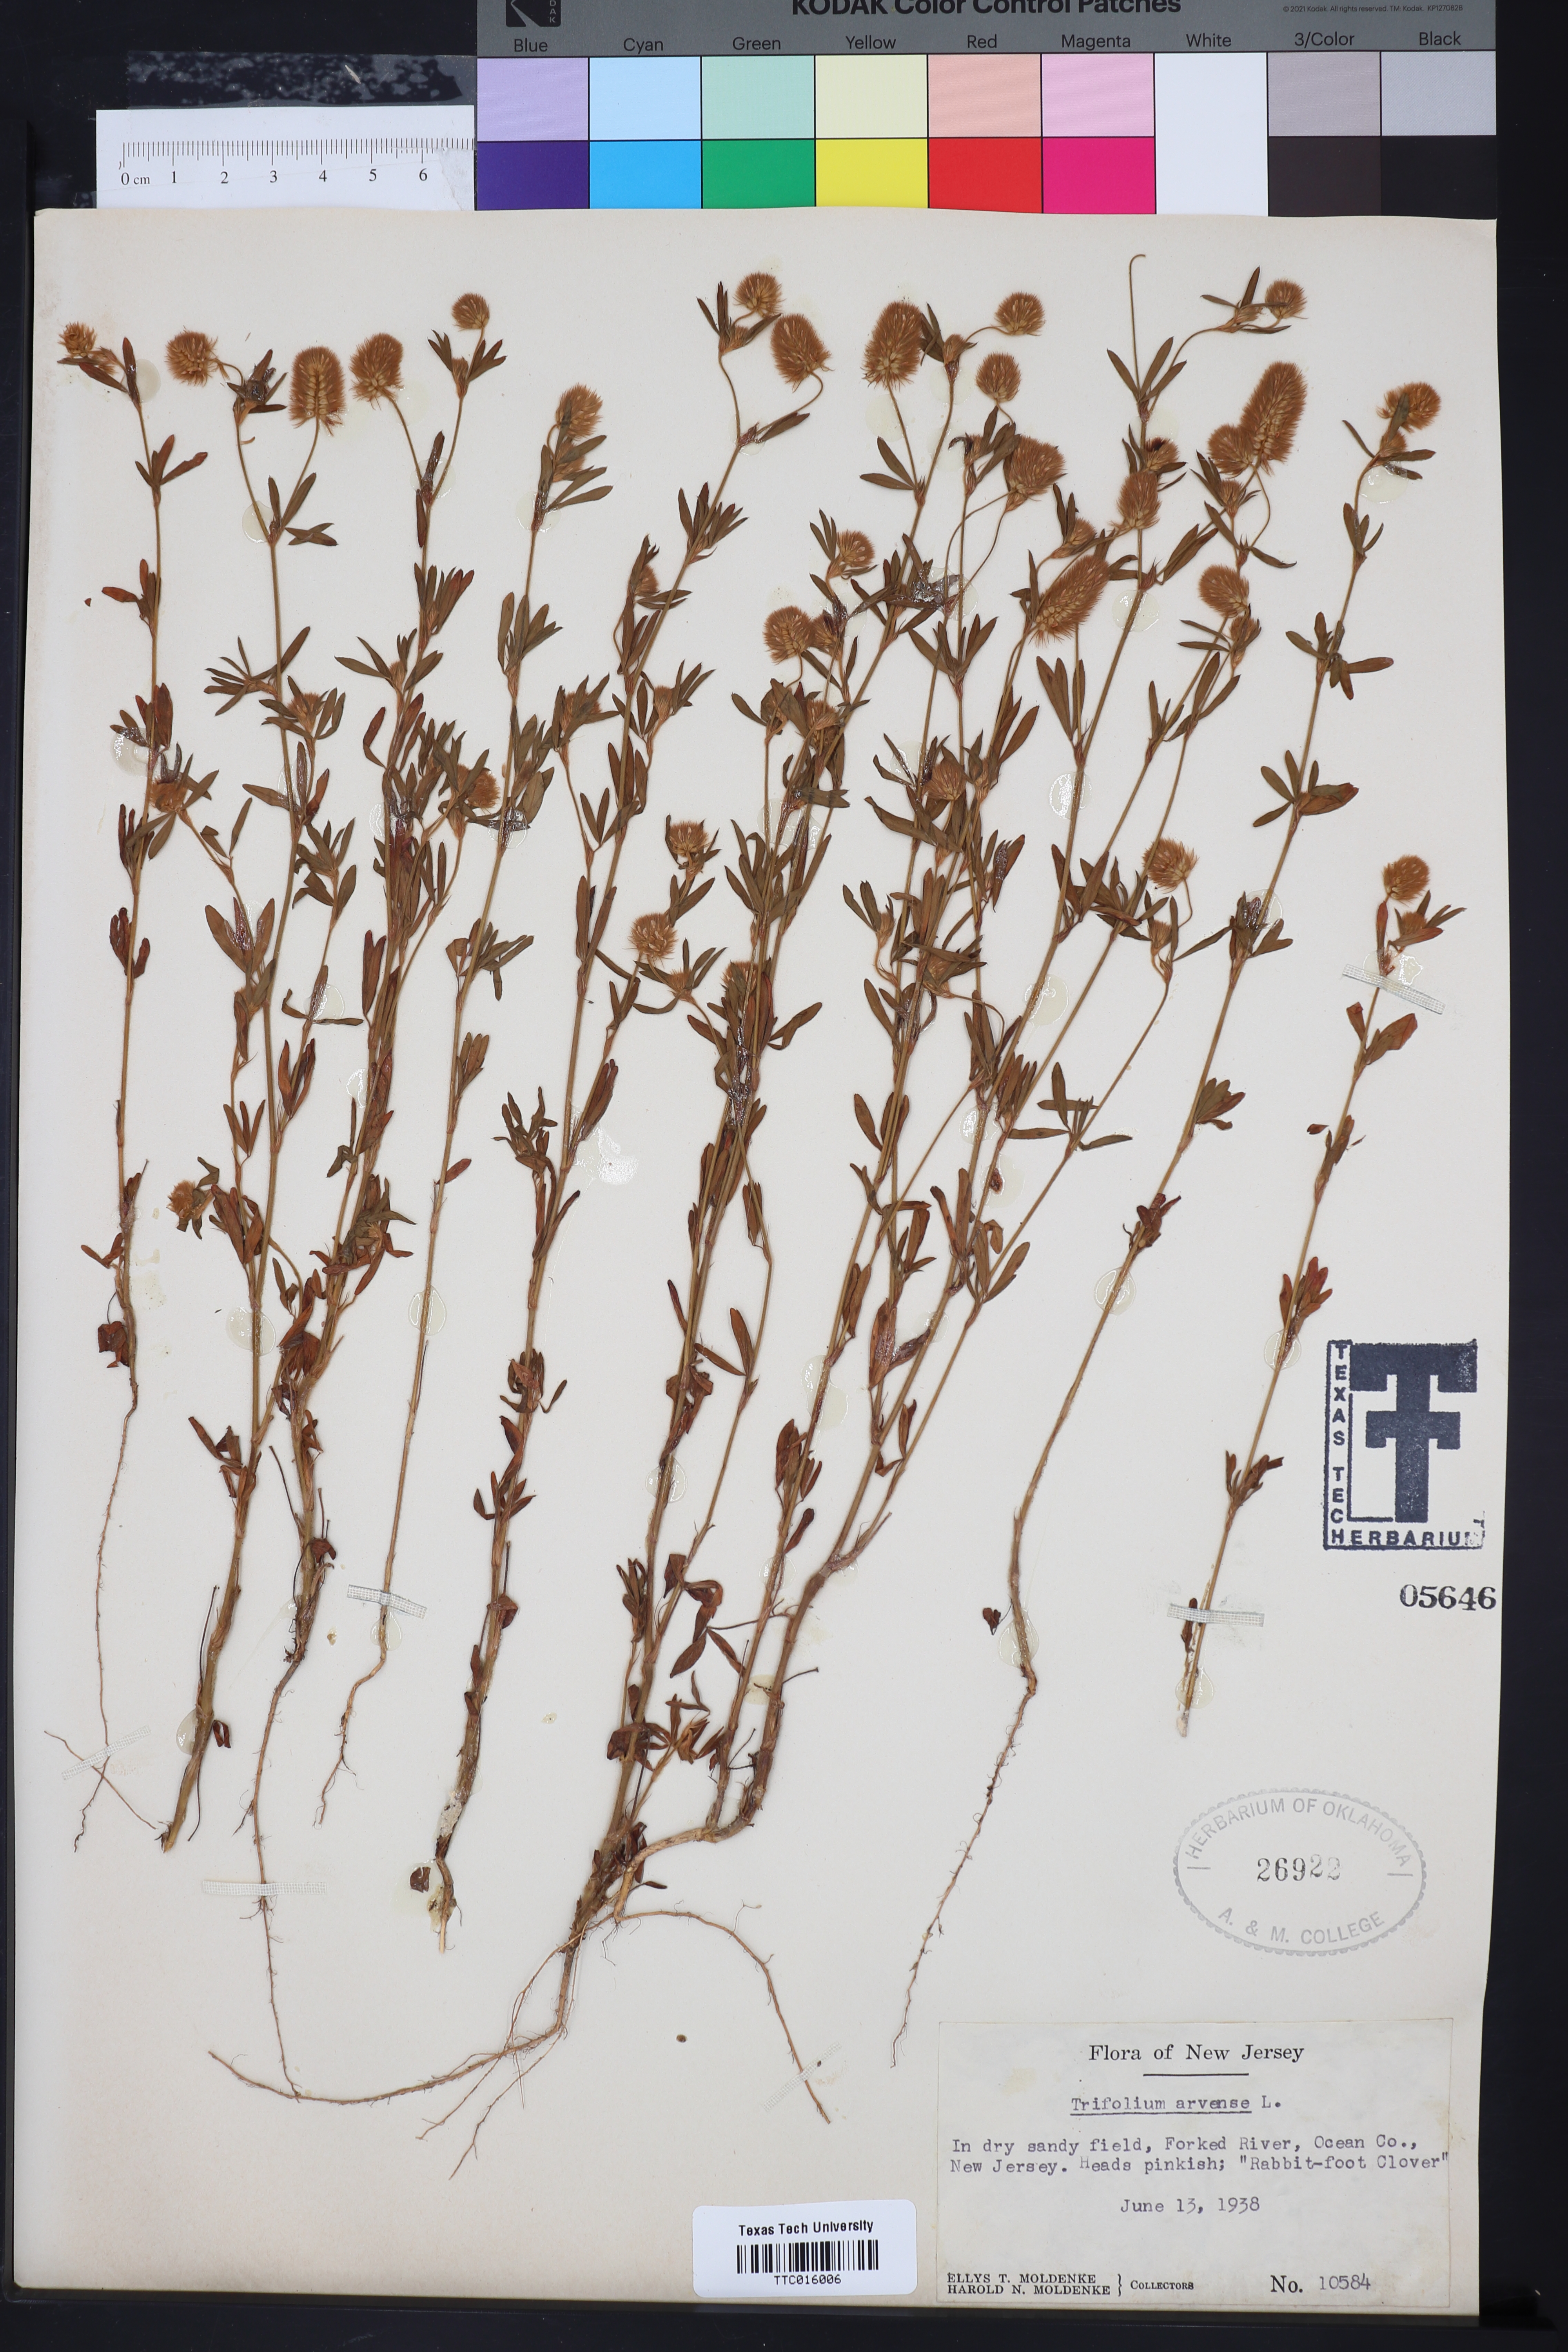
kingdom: Plantae
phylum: Tracheophyta
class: Magnoliopsida
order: Fabales
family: Fabaceae
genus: Trifolium
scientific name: Trifolium arvense
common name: Hare's-foot clover
